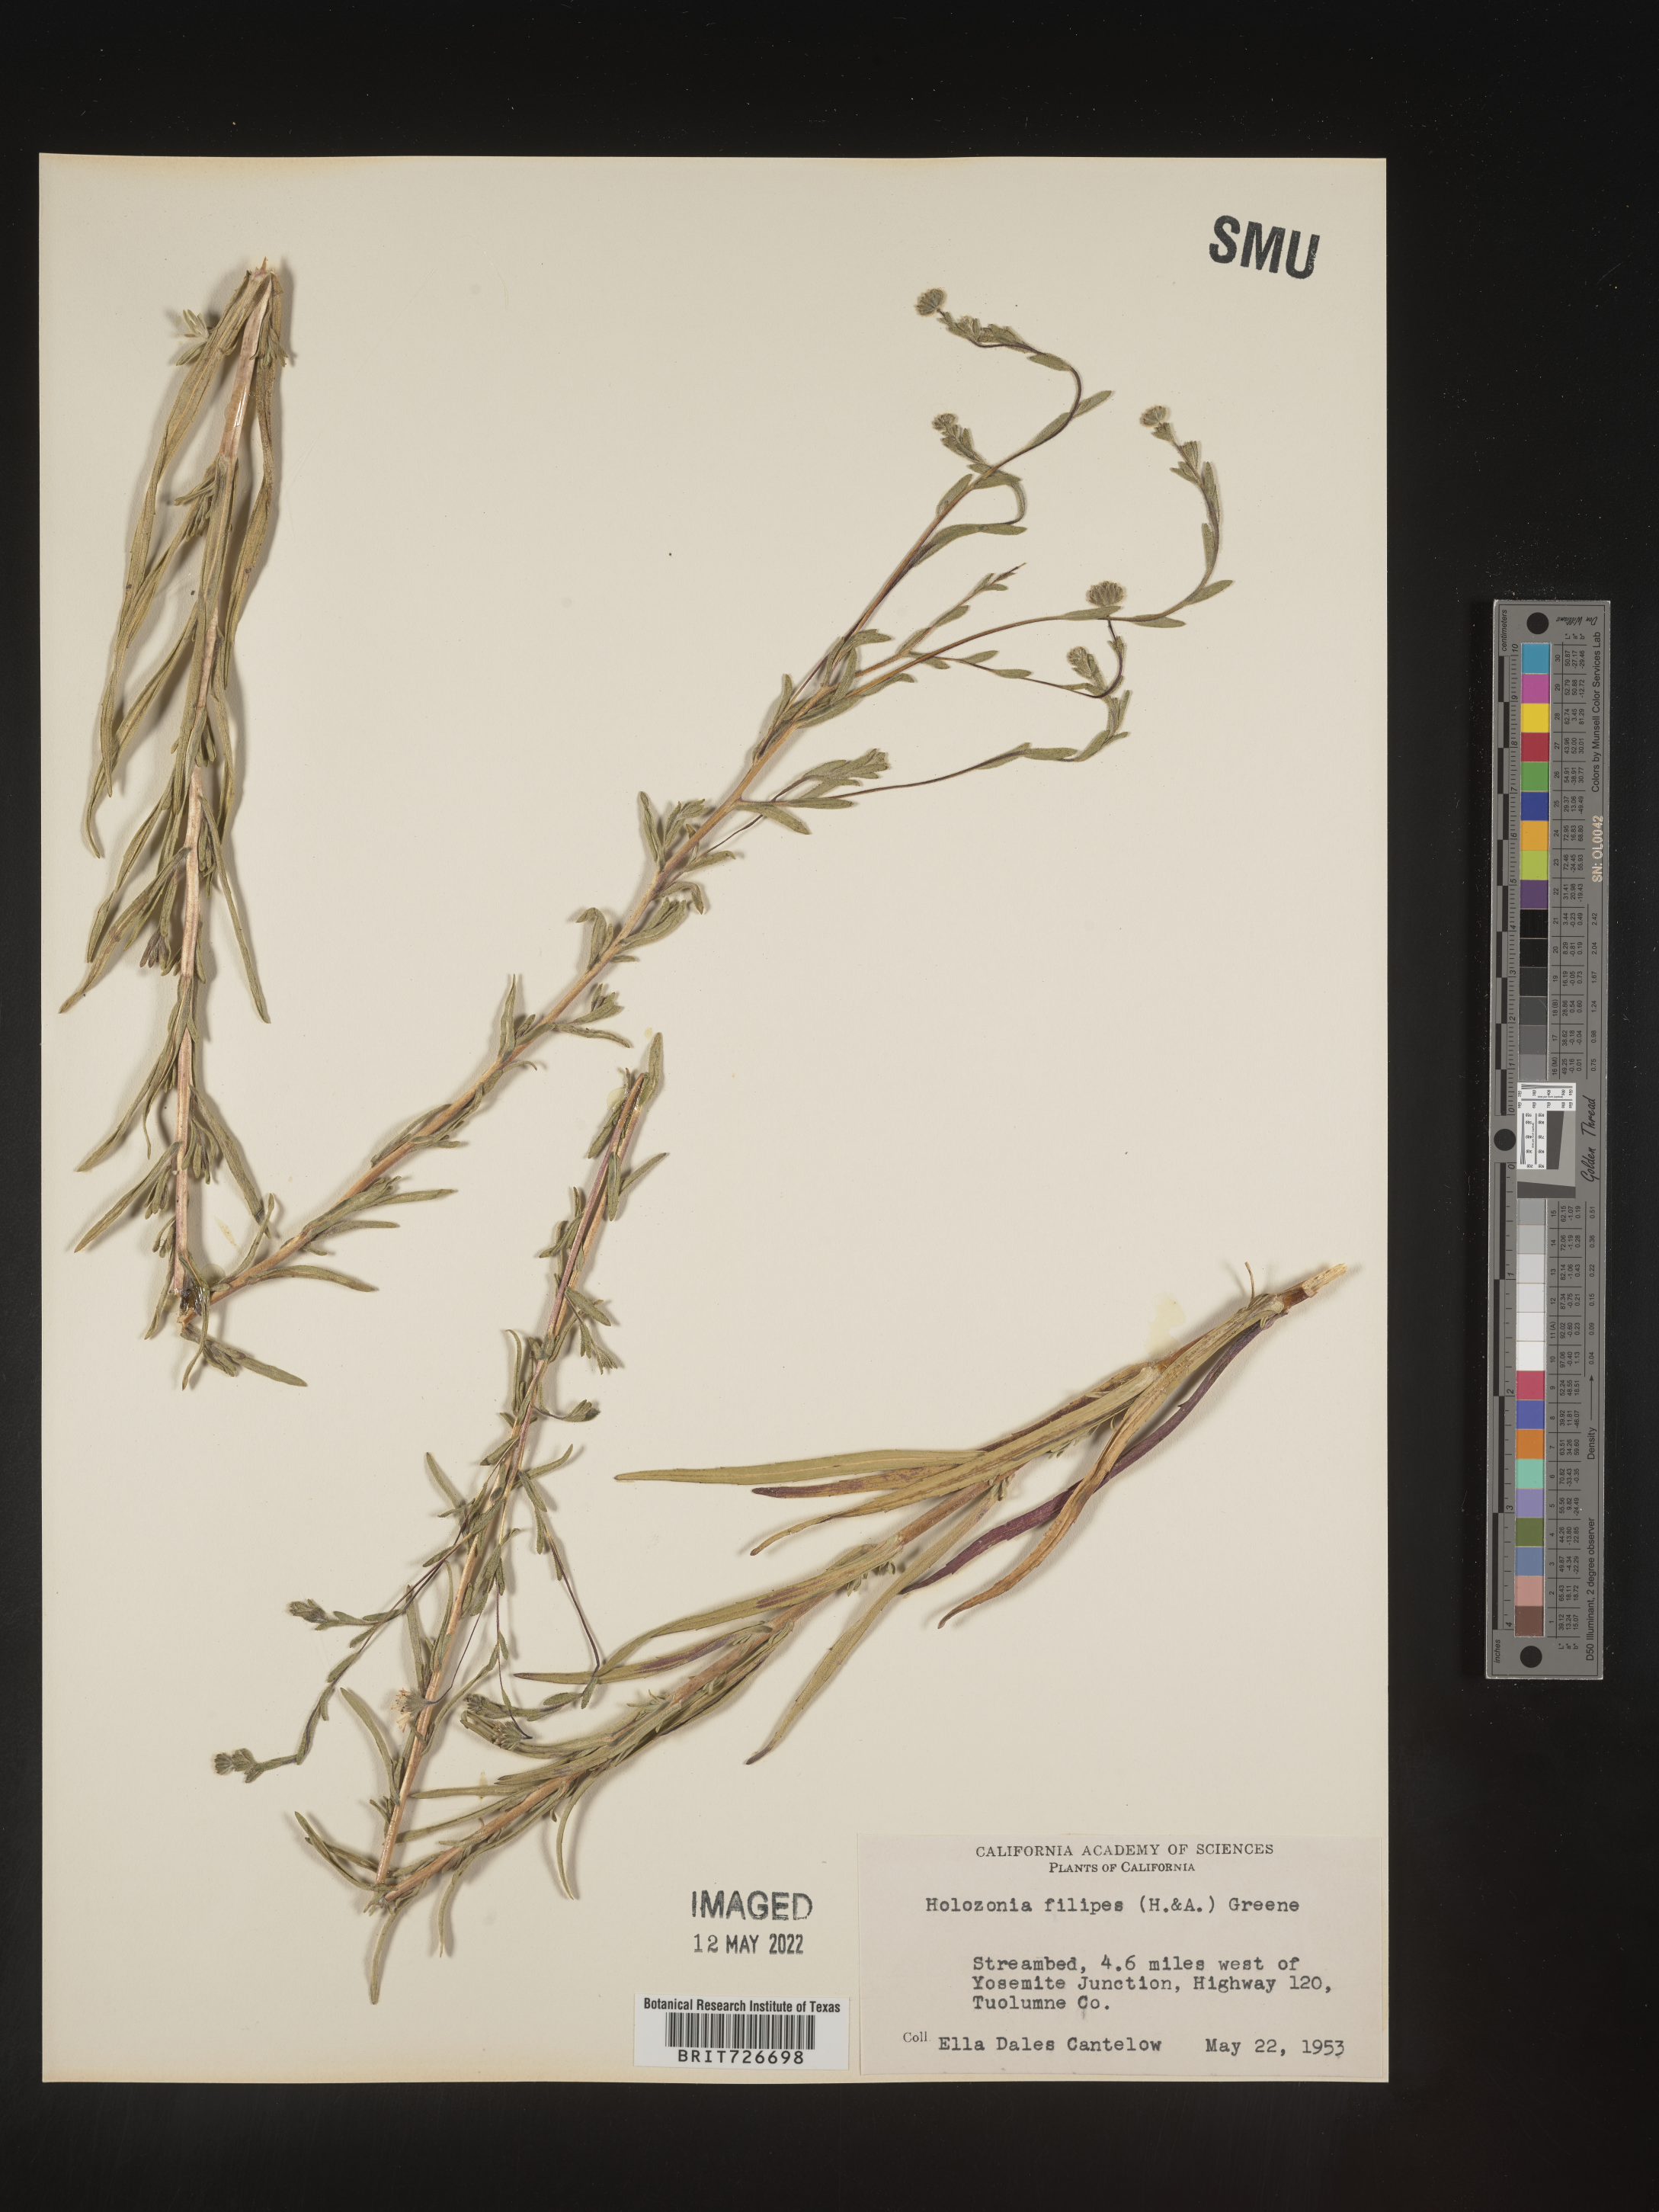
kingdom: Plantae
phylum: Tracheophyta
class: Magnoliopsida
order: Asterales
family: Asteraceae
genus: Holozonia
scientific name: Holozonia
